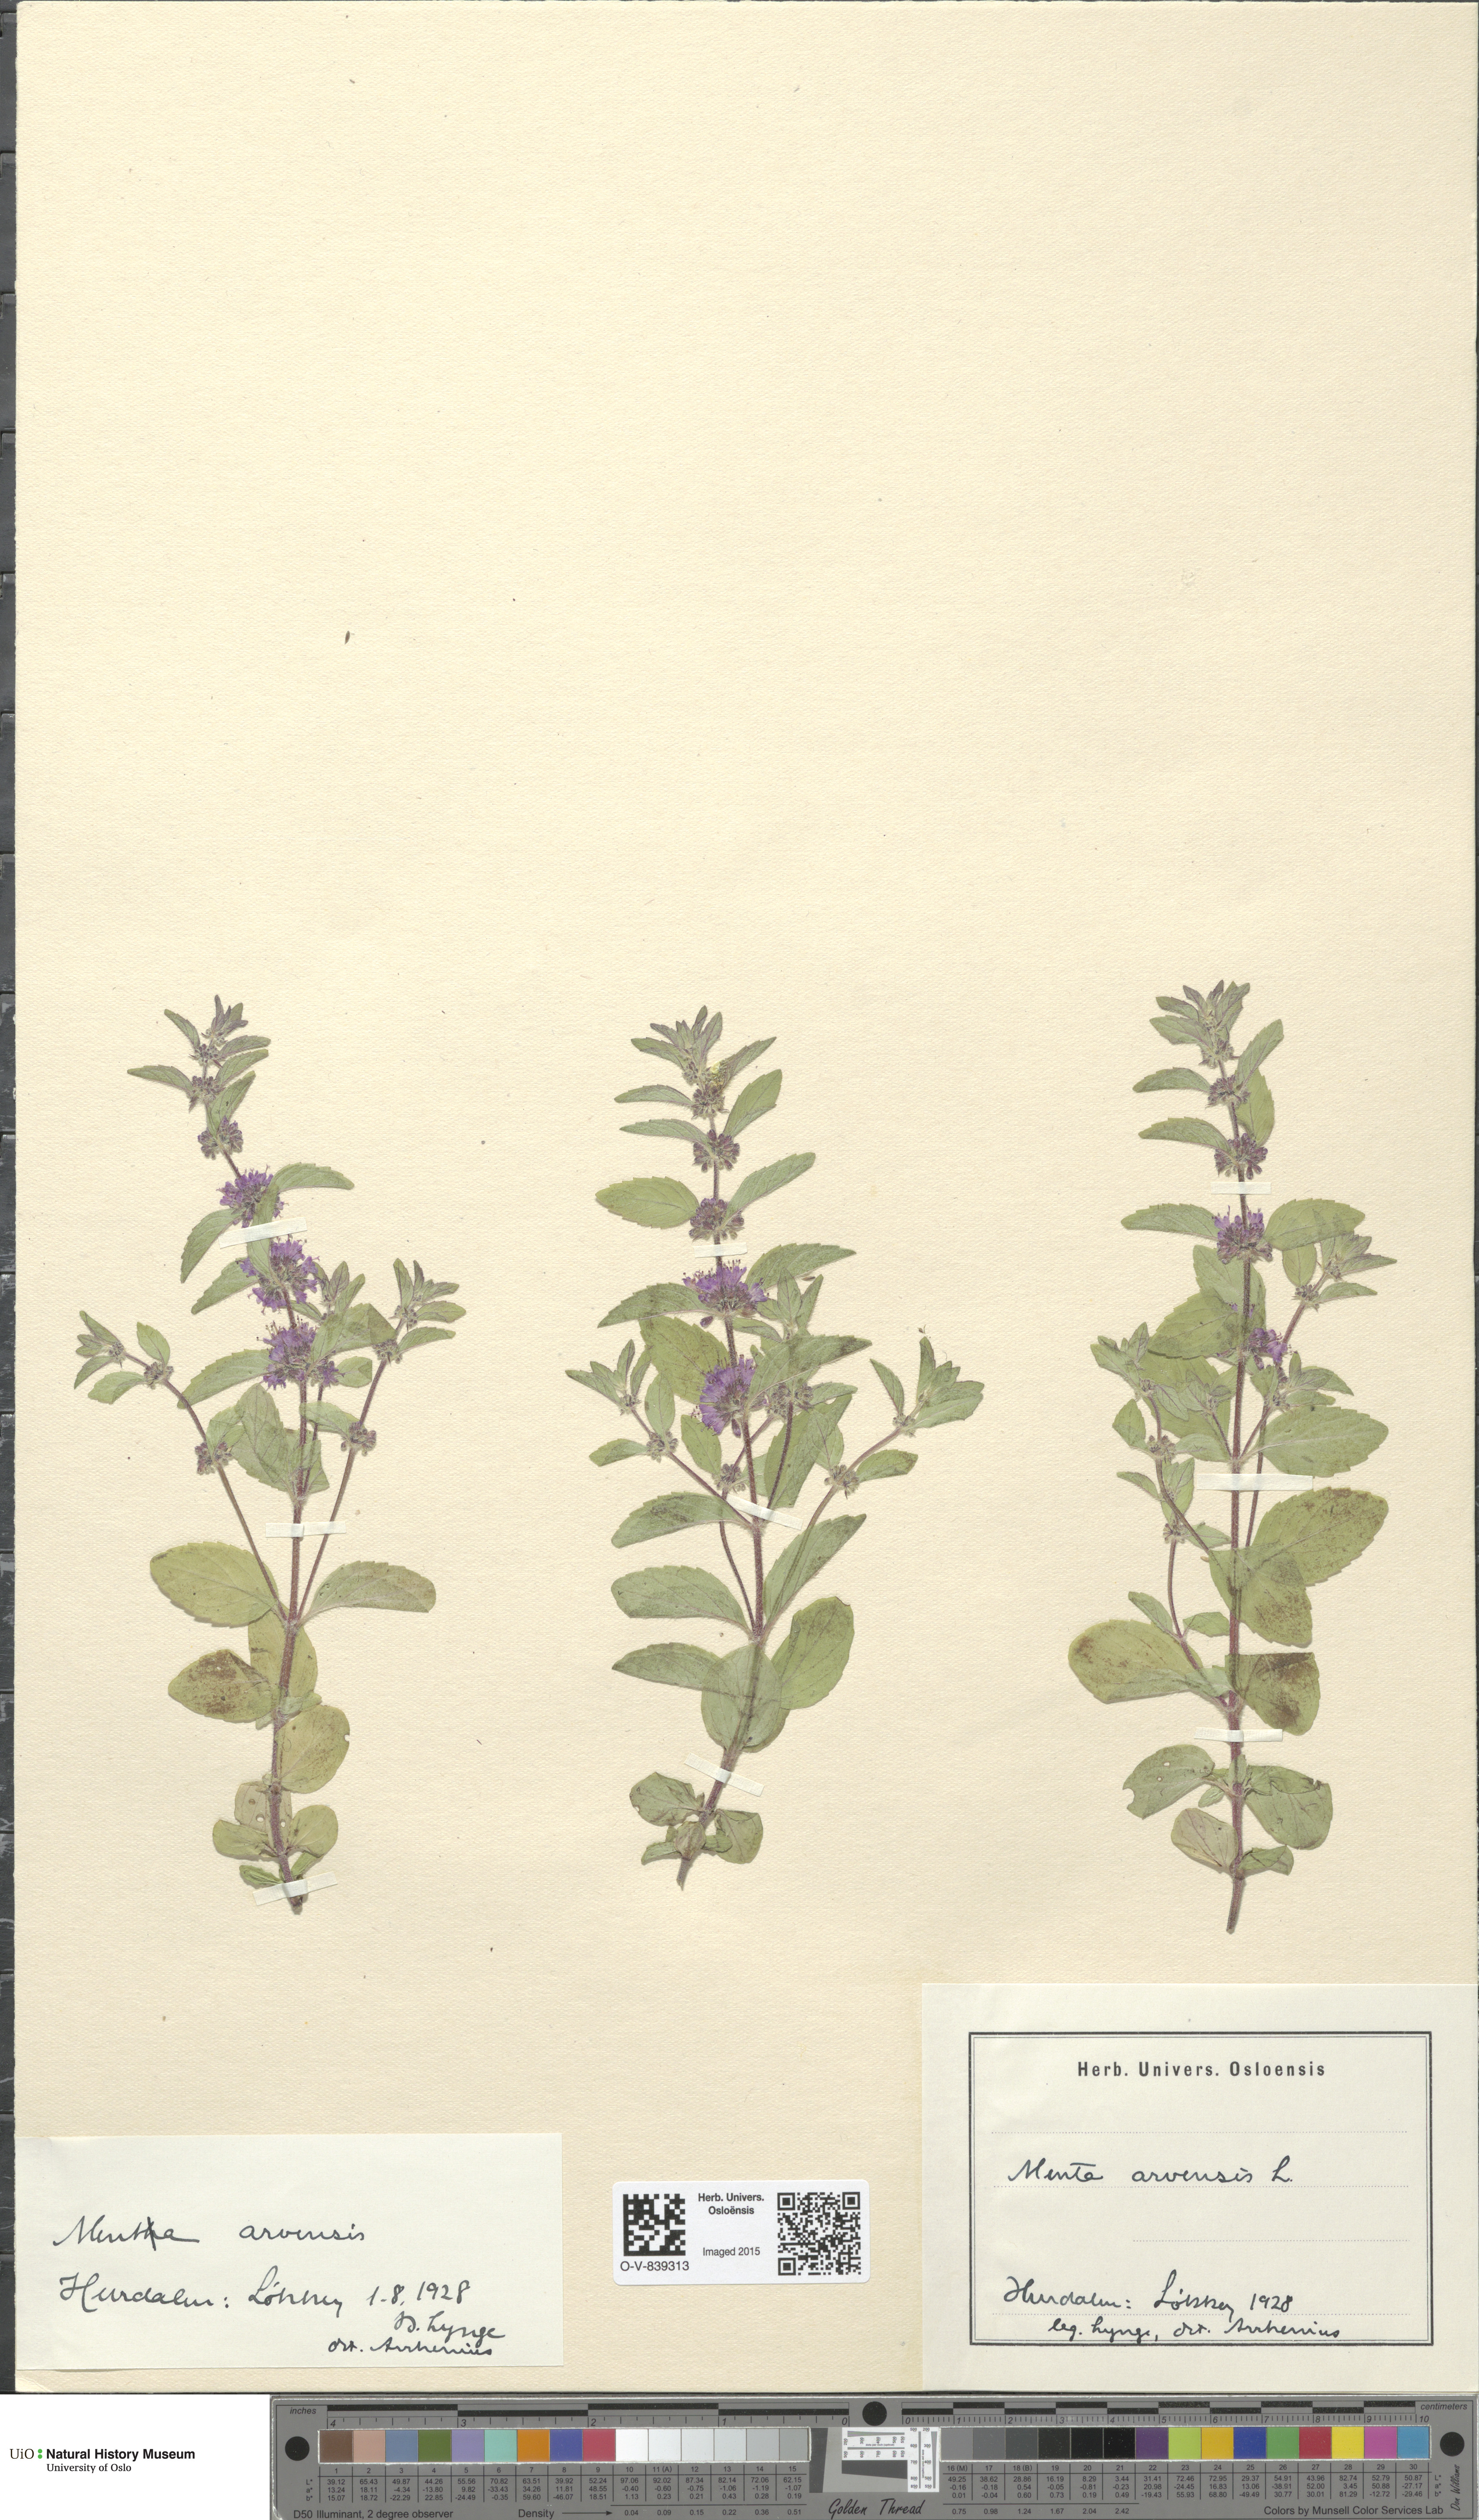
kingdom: Plantae
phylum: Tracheophyta
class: Magnoliopsida
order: Lamiales
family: Lamiaceae
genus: Mentha
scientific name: Mentha arvensis
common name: Corn mint
